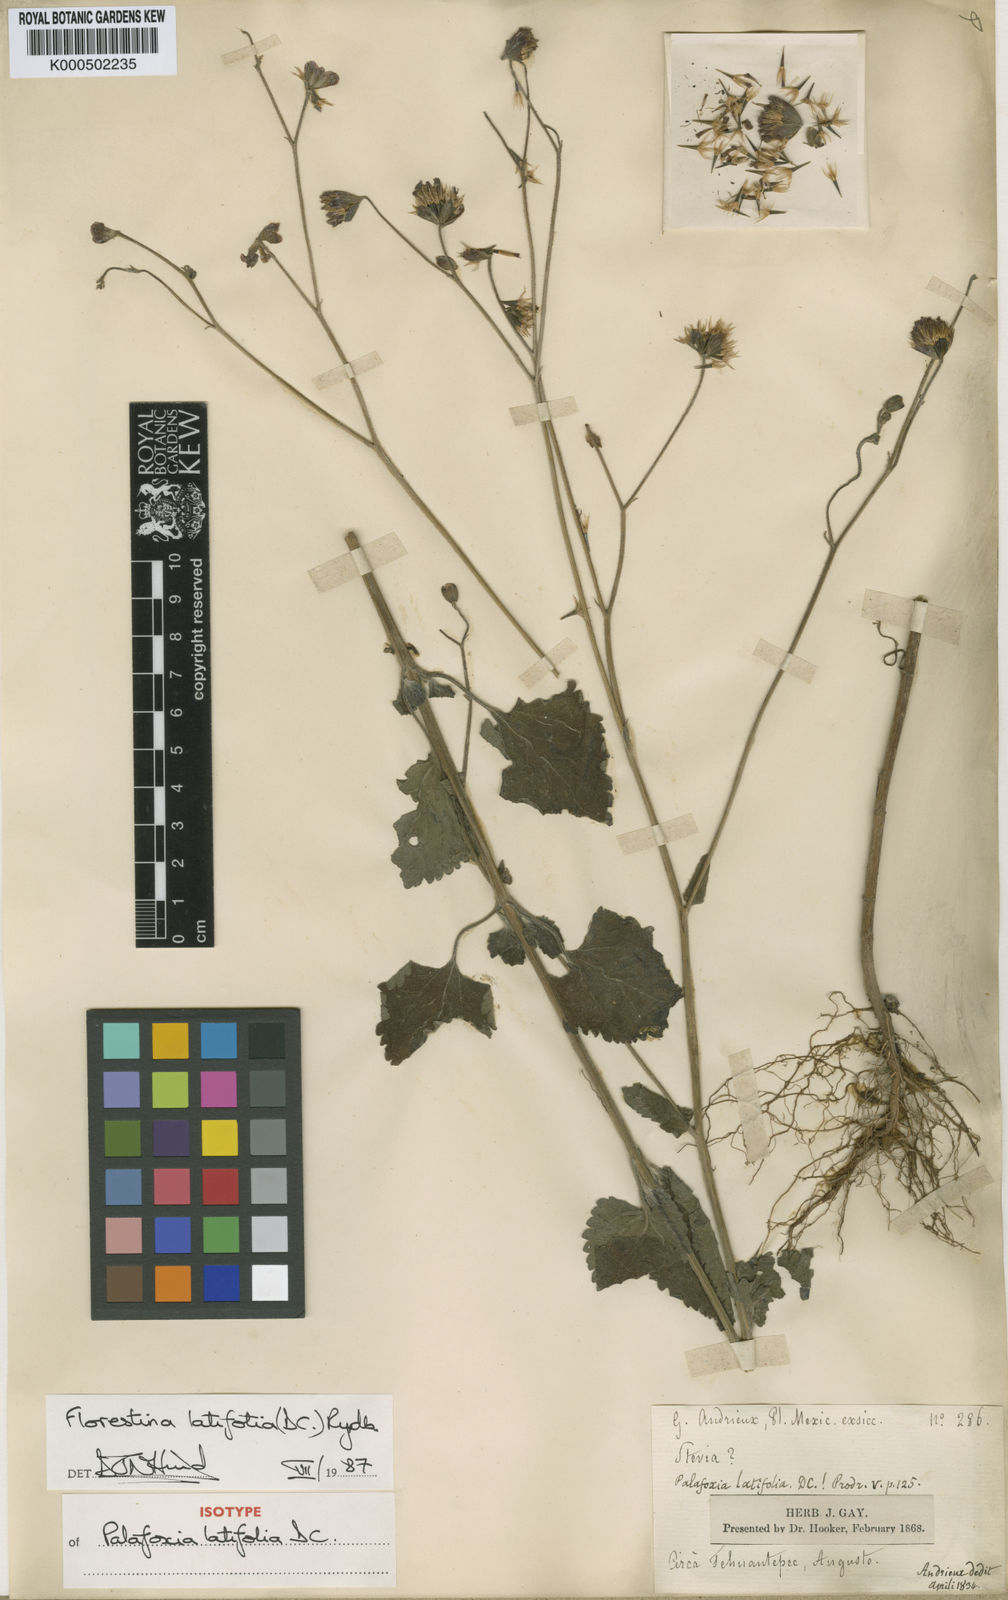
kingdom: Plantae
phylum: Tracheophyta
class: Magnoliopsida
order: Asterales
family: Asteraceae
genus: Florestina
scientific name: Florestina latifolia
